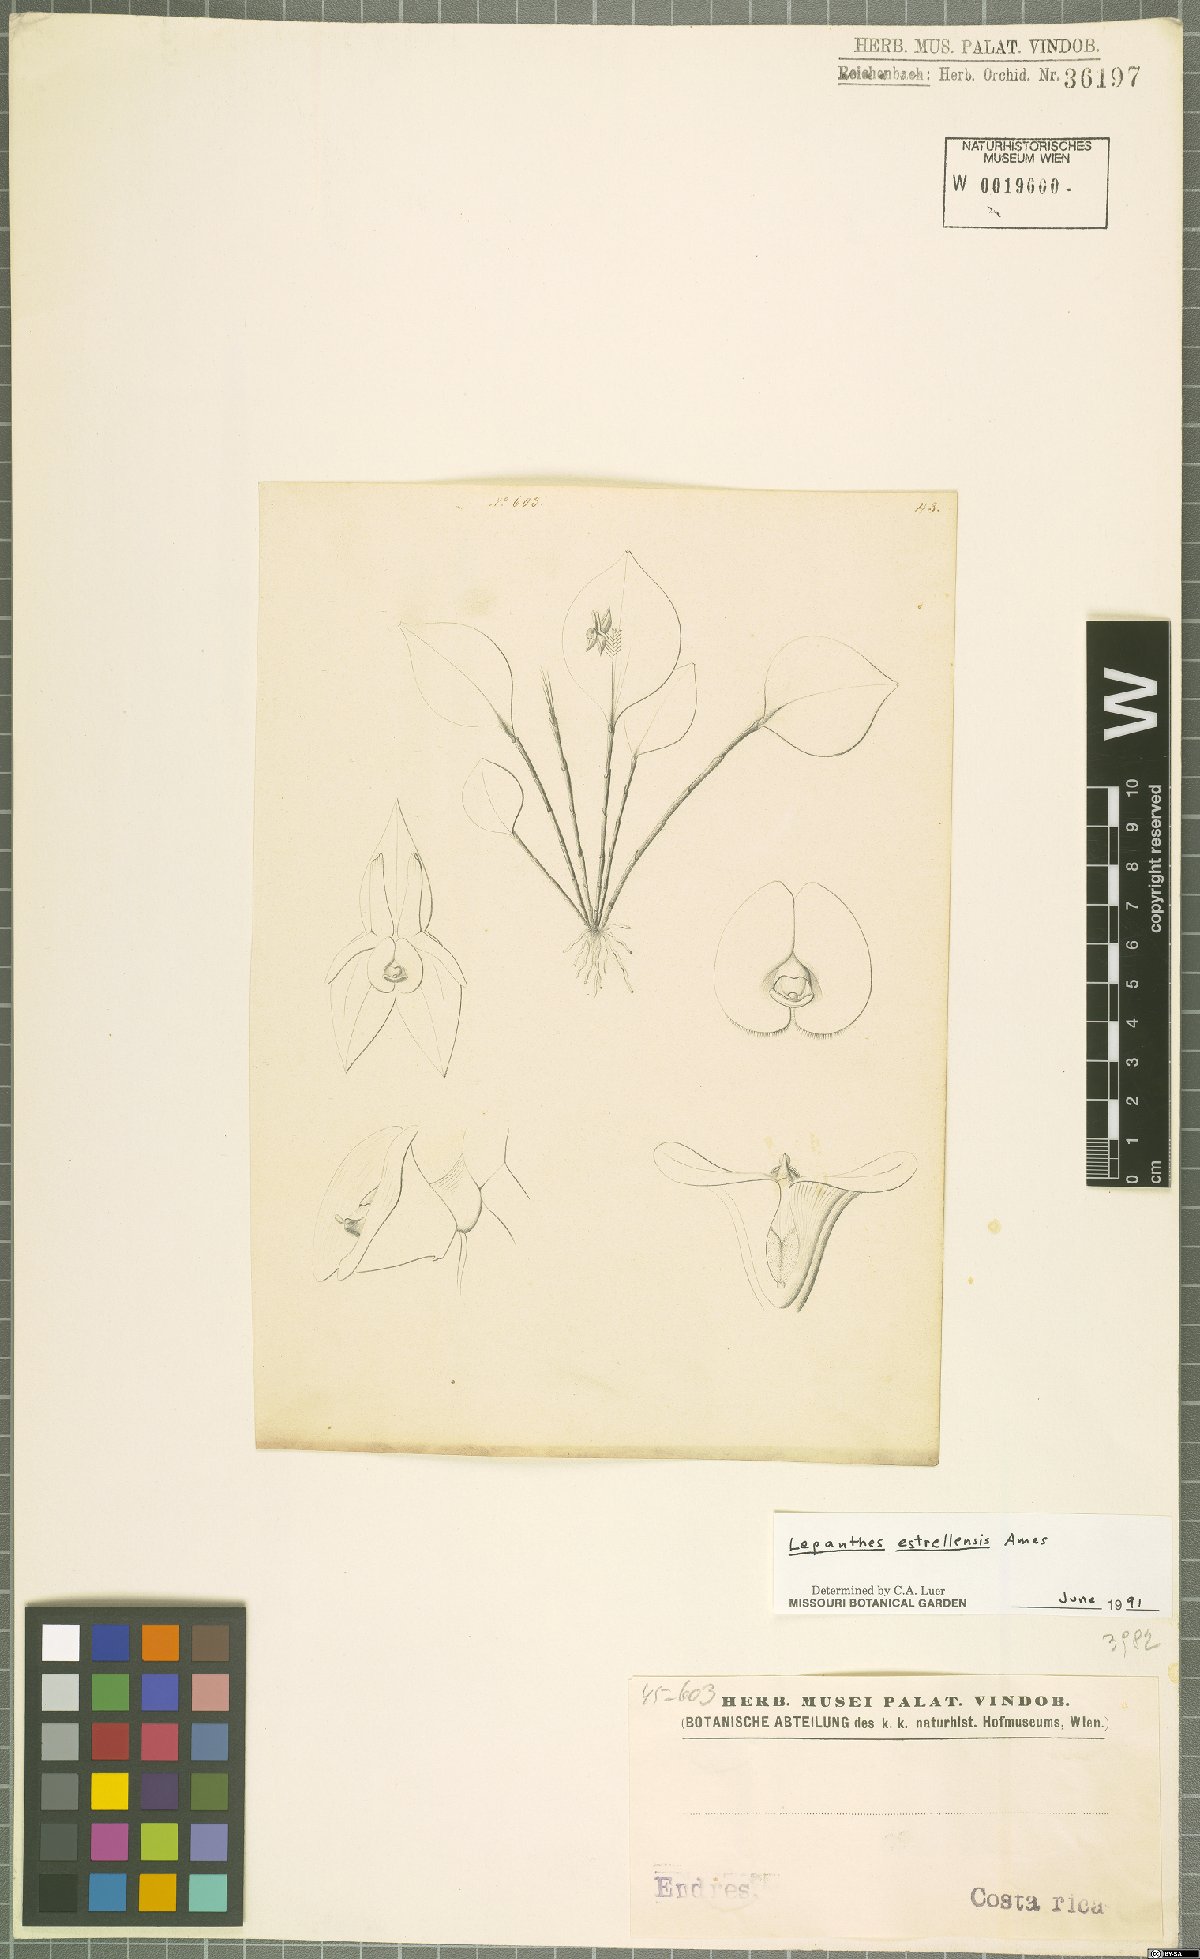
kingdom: Plantae
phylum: Tracheophyta
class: Liliopsida
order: Asparagales
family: Orchidaceae
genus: Lepanthes
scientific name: Lepanthes estrellensis
